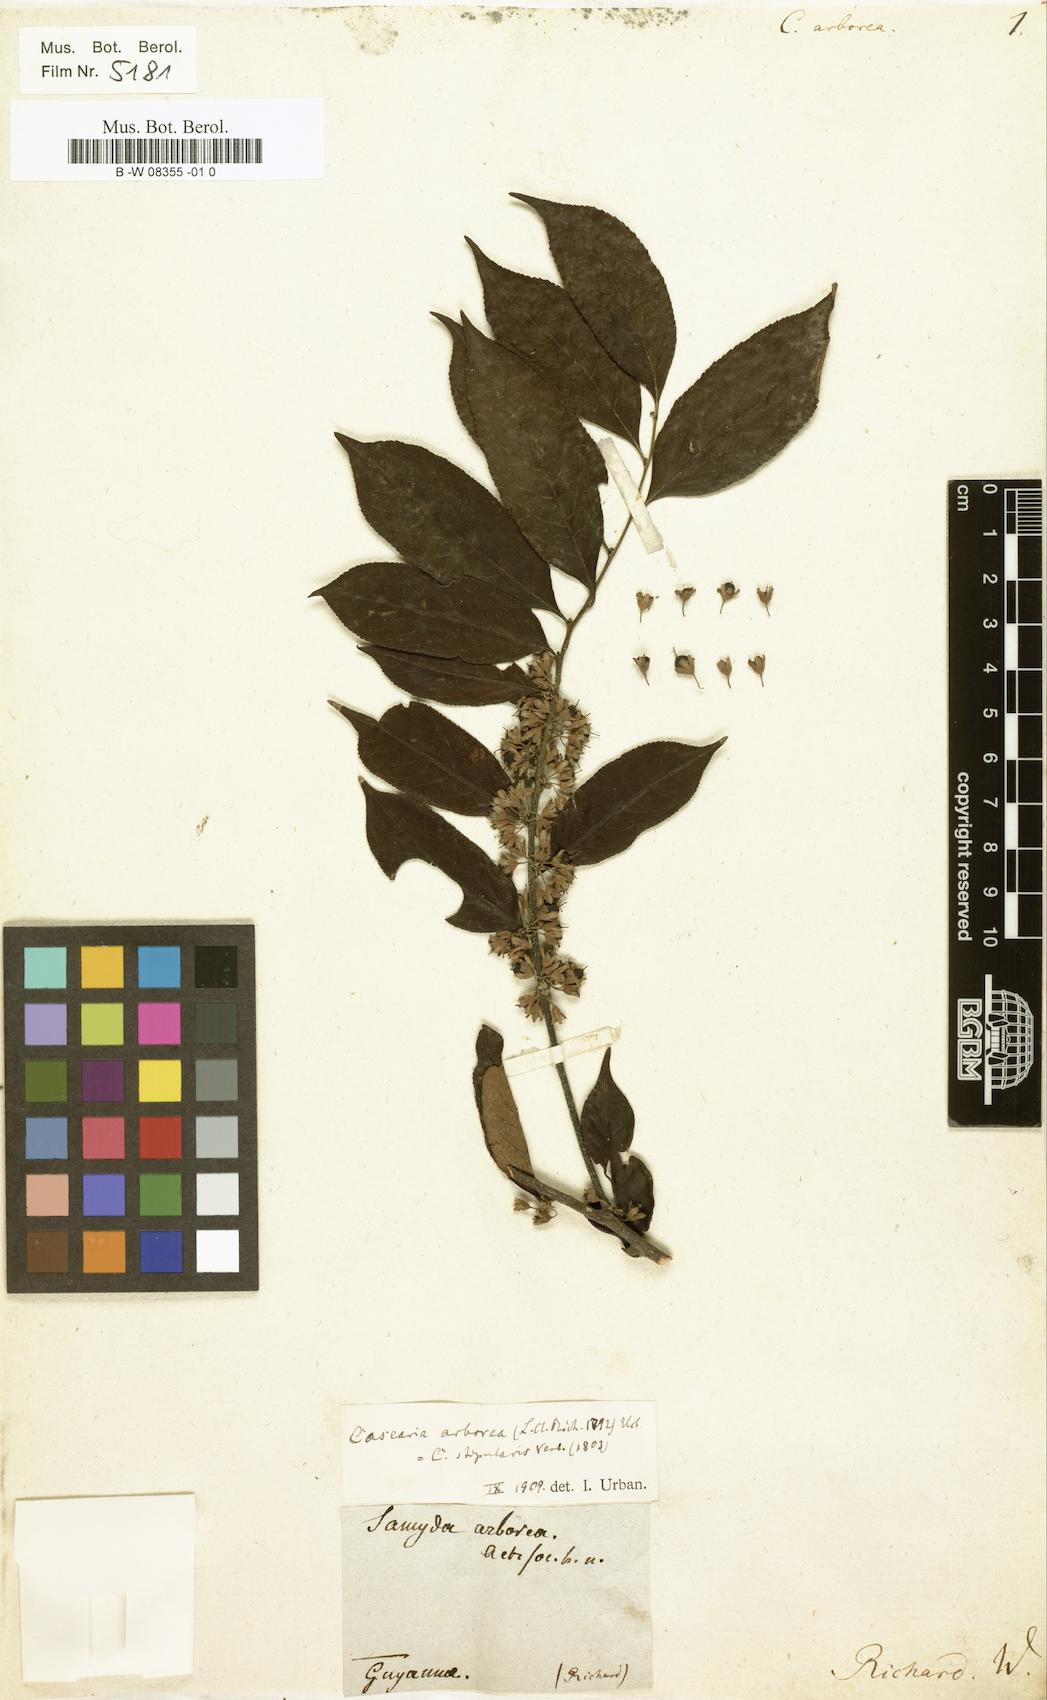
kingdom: Plantae
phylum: Tracheophyta
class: Magnoliopsida
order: Malpighiales
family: Salicaceae
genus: Casearia
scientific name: Casearia arborea
